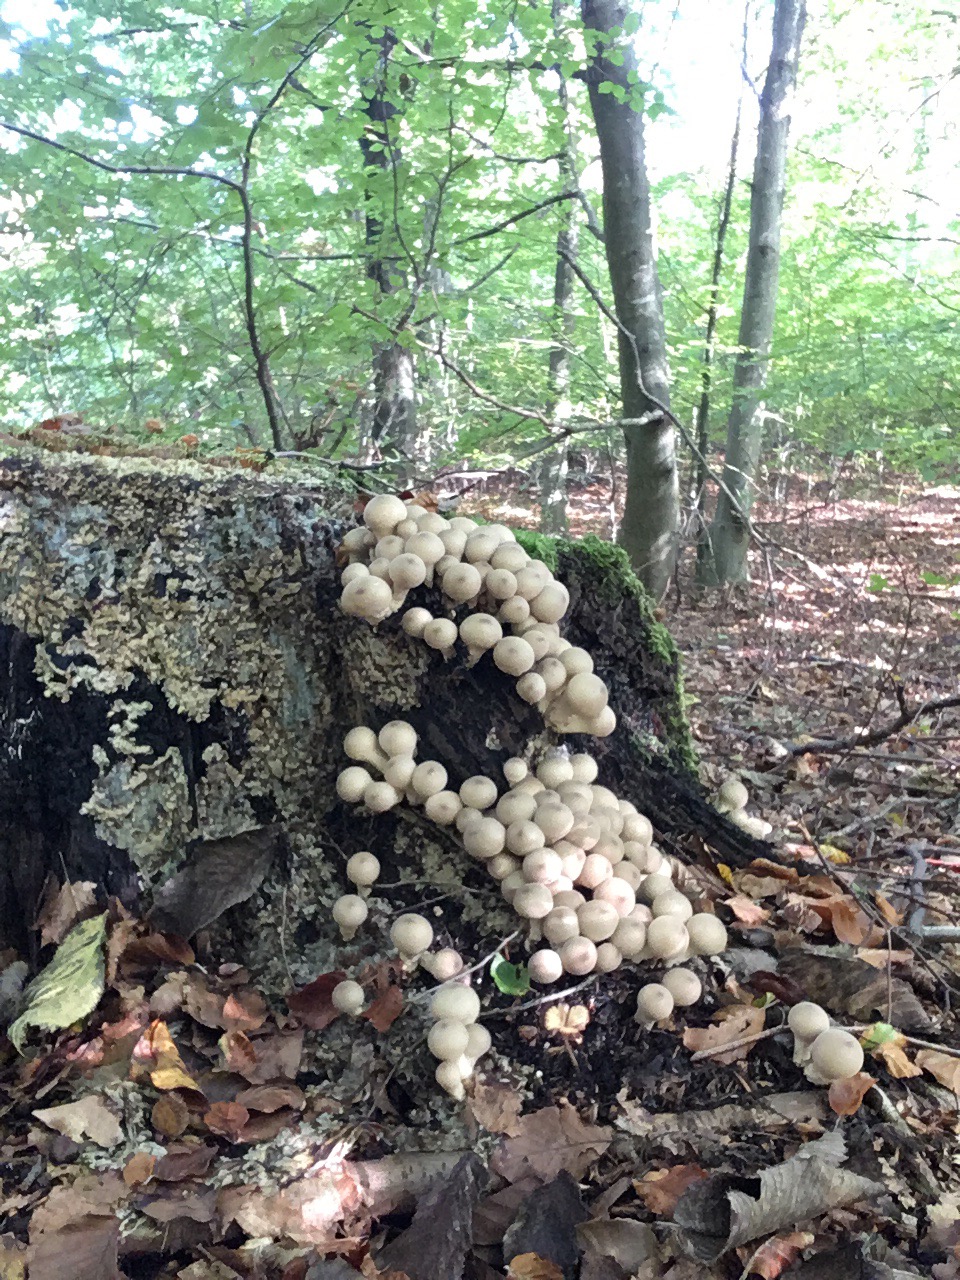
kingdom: Fungi
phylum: Basidiomycota
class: Agaricomycetes
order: Agaricales
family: Lycoperdaceae
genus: Apioperdon
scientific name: Apioperdon pyriforme
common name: pære-støvbold
